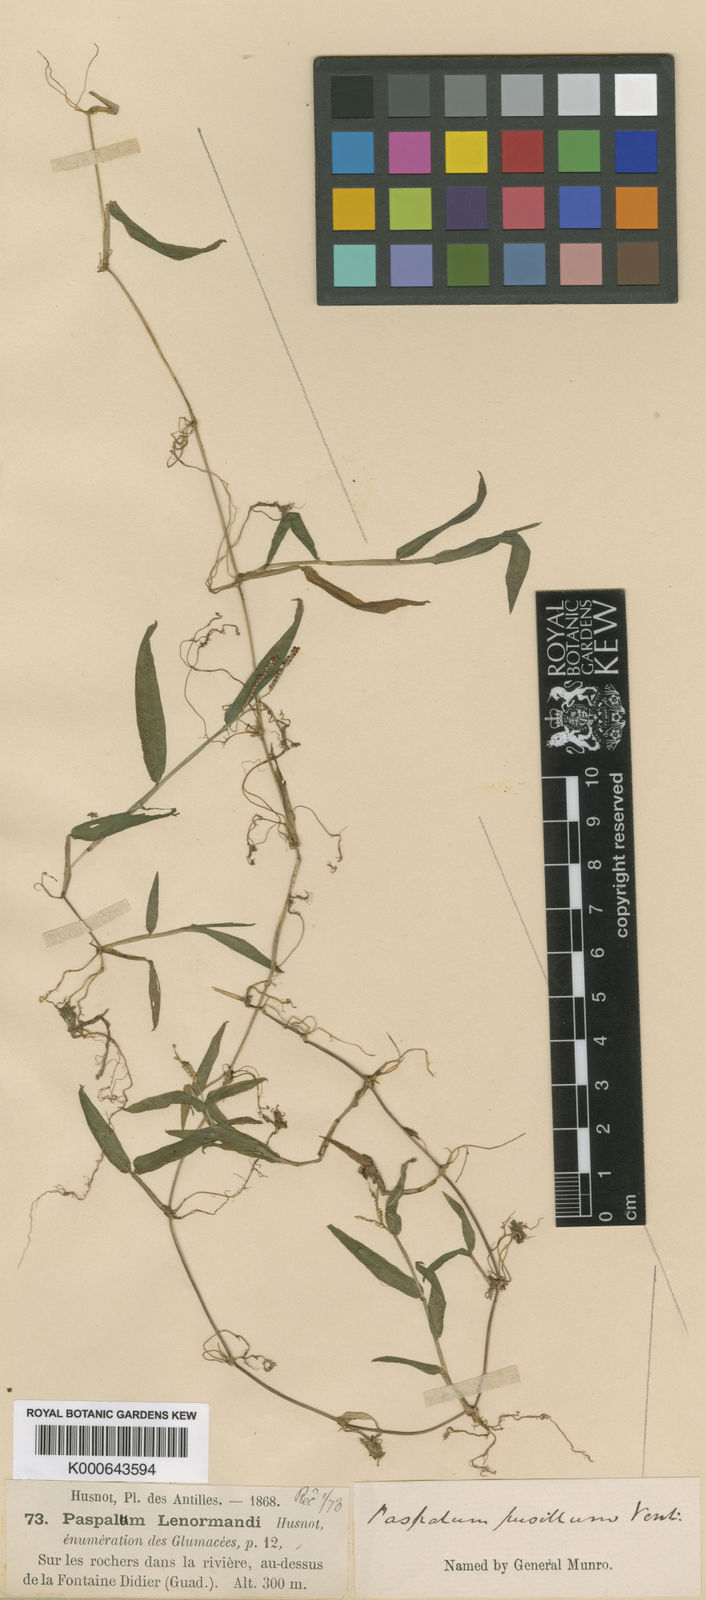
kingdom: Plantae
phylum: Tracheophyta
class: Liliopsida
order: Poales
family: Poaceae
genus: Paspalum
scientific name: Paspalum orbiculatum
